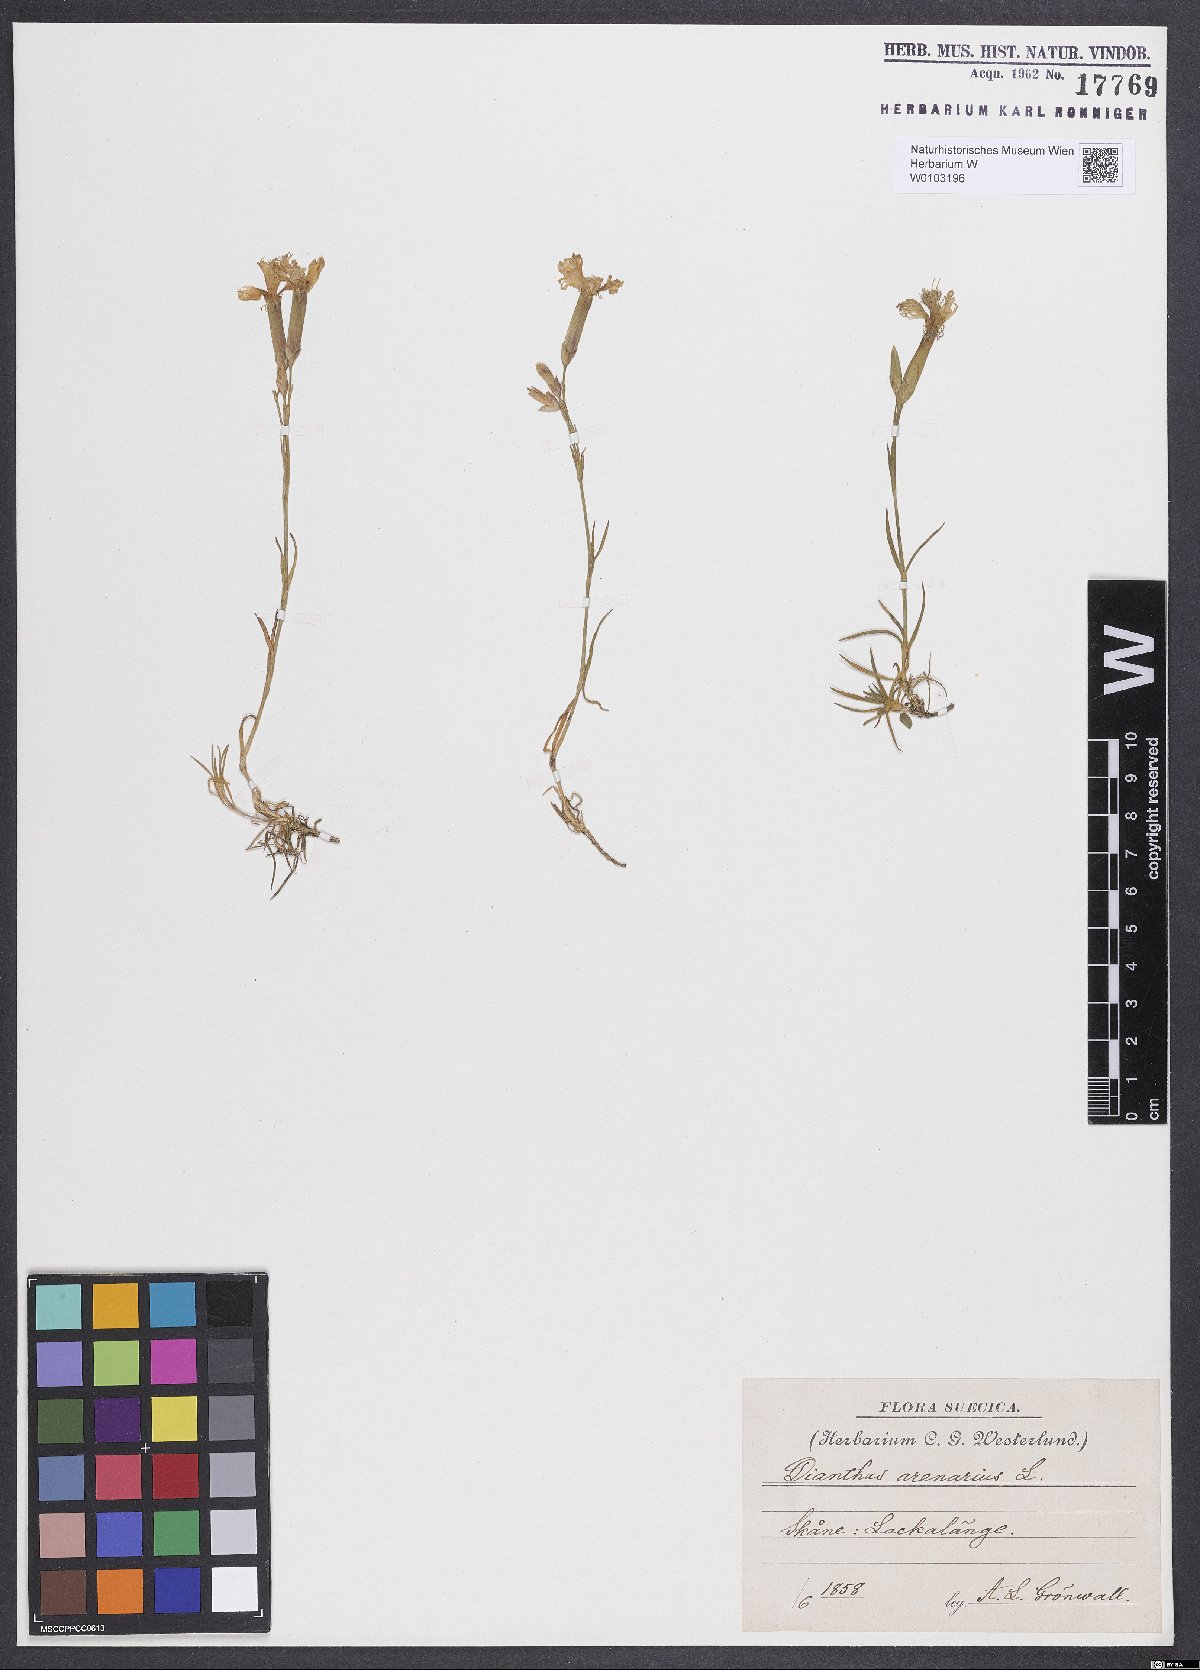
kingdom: Plantae
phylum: Tracheophyta
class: Magnoliopsida
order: Caryophyllales
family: Caryophyllaceae
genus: Dianthus
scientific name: Dianthus arenarius
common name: Stone pink
